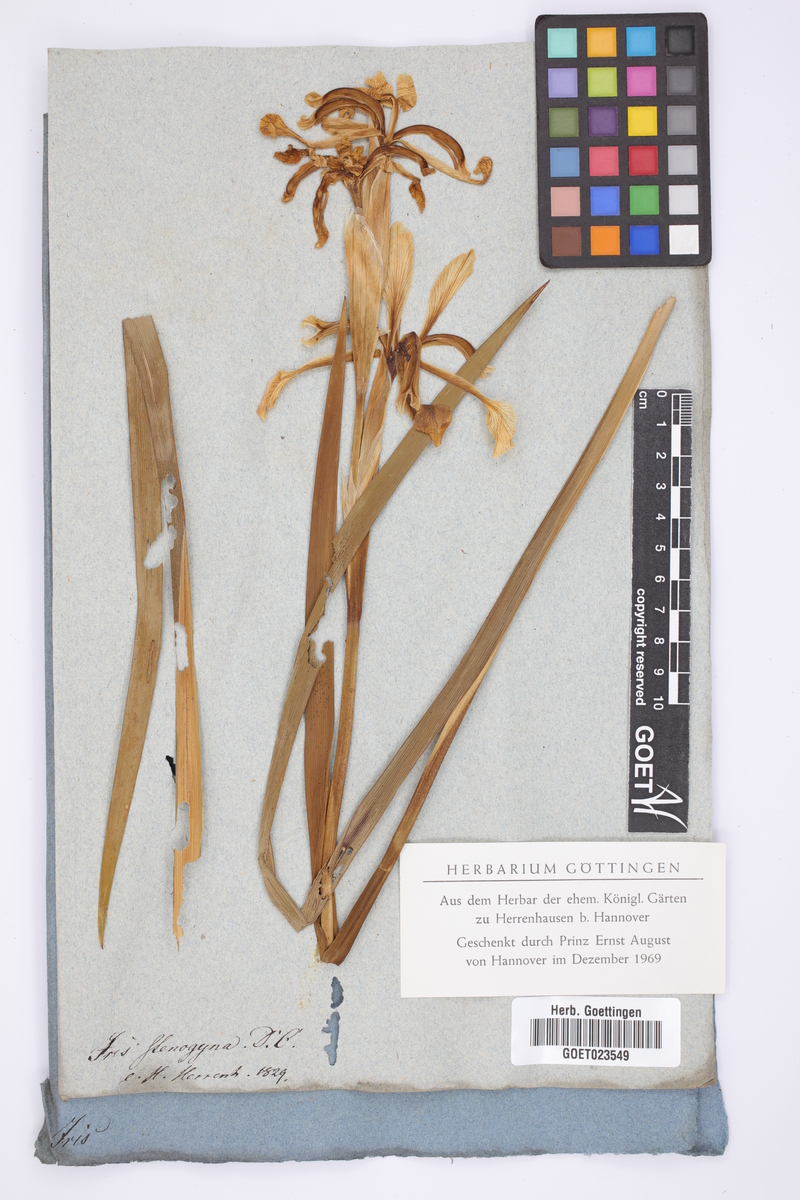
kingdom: Plantae
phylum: Tracheophyta
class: Liliopsida
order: Asparagales
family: Iridaceae
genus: Iris
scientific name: Iris halophila
